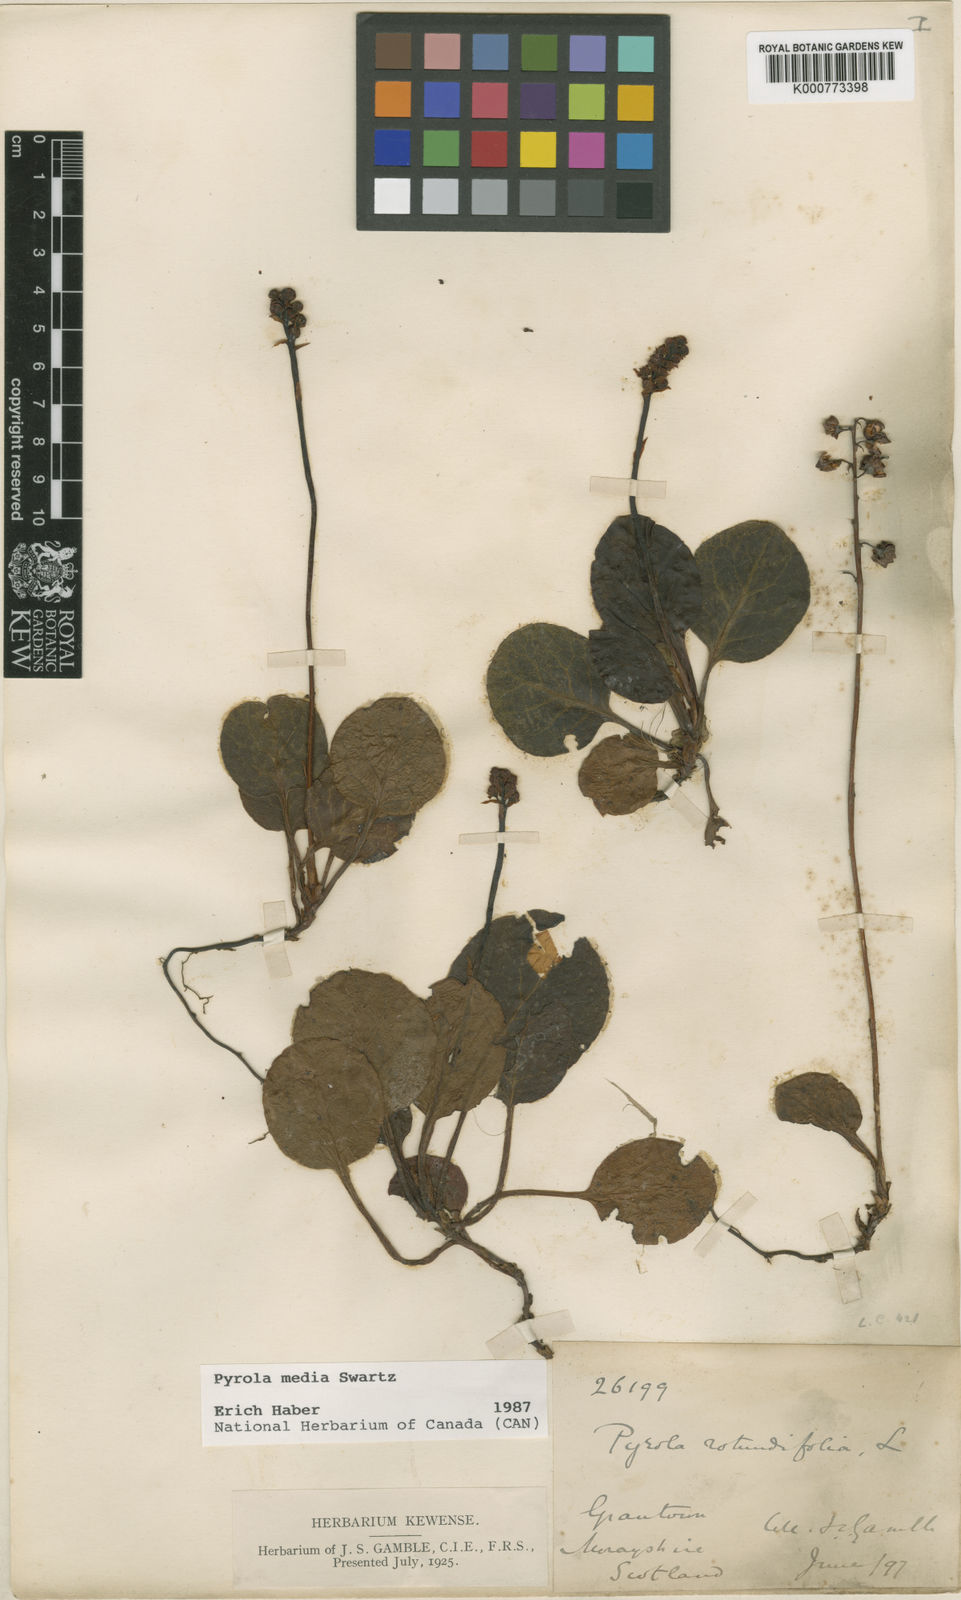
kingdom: Plantae
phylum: Tracheophyta
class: Magnoliopsida
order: Ericales
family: Ericaceae
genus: Pyrola
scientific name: Pyrola media
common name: Intermediate wintergreen
